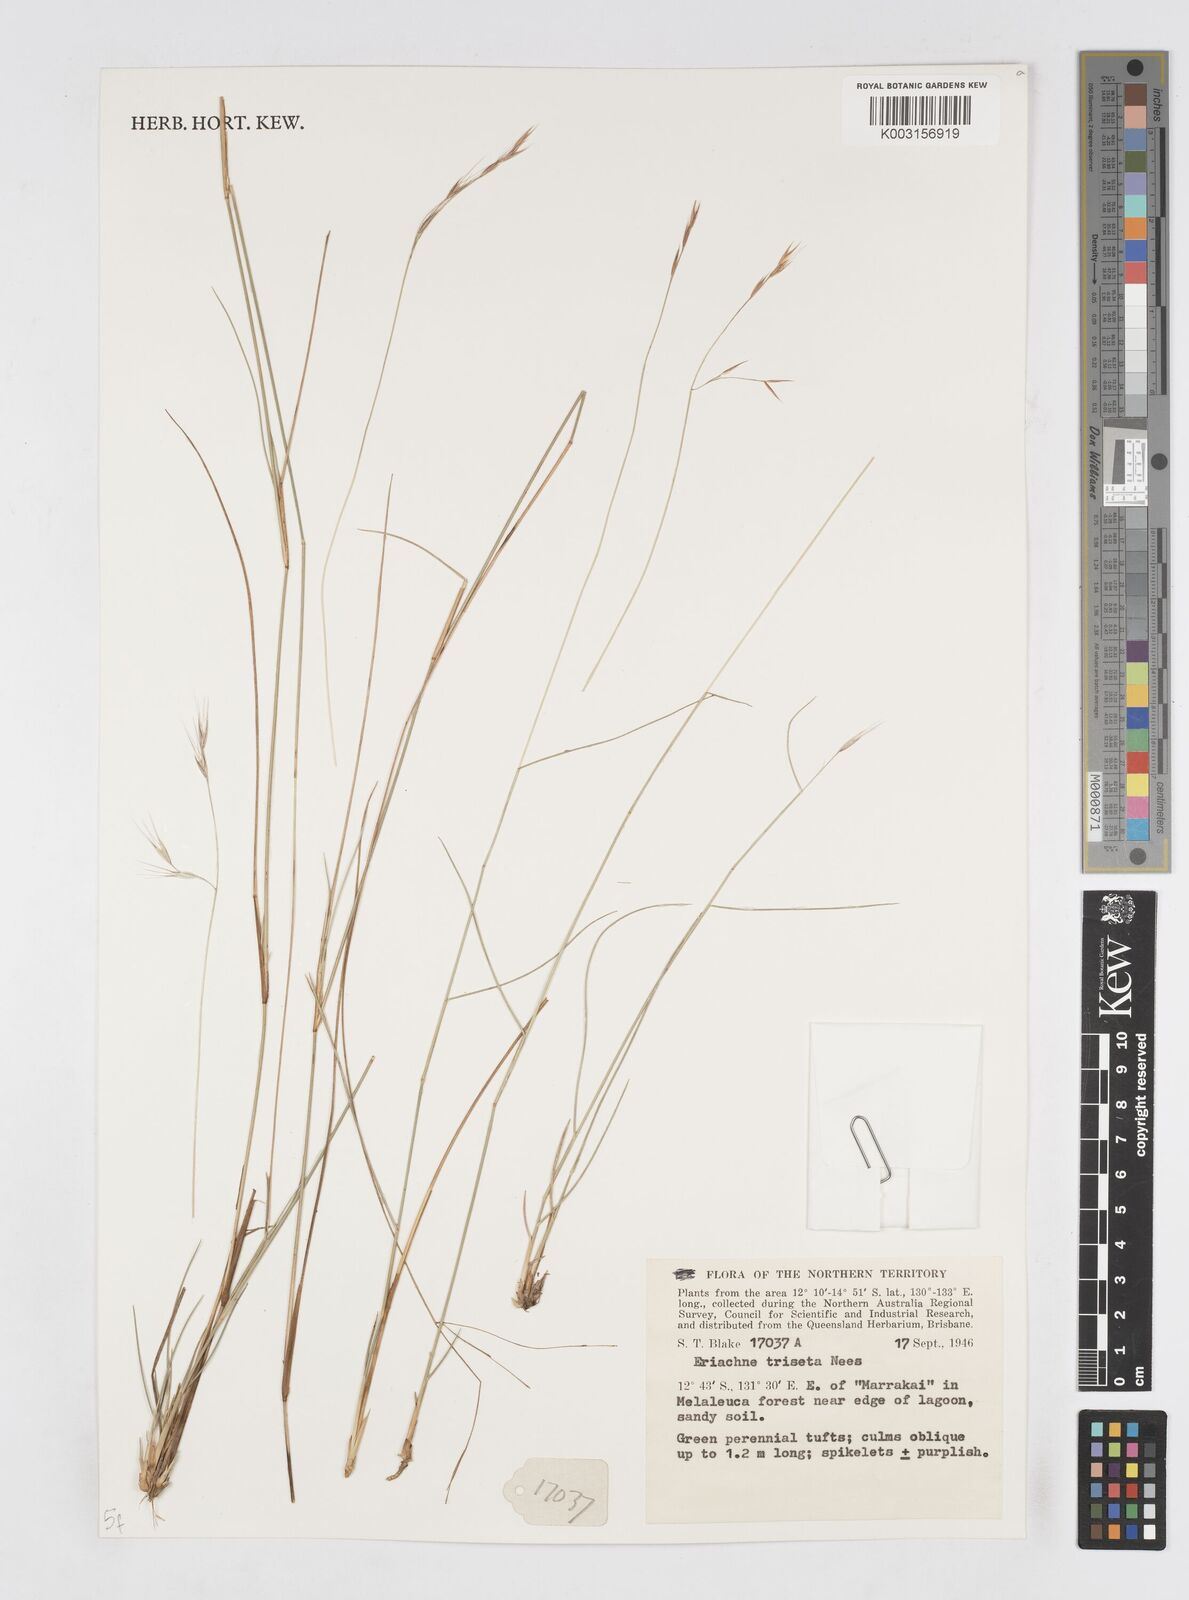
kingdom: Plantae
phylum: Tracheophyta
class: Liliopsida
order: Poales
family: Poaceae
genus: Eriachne
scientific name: Eriachne triseta
